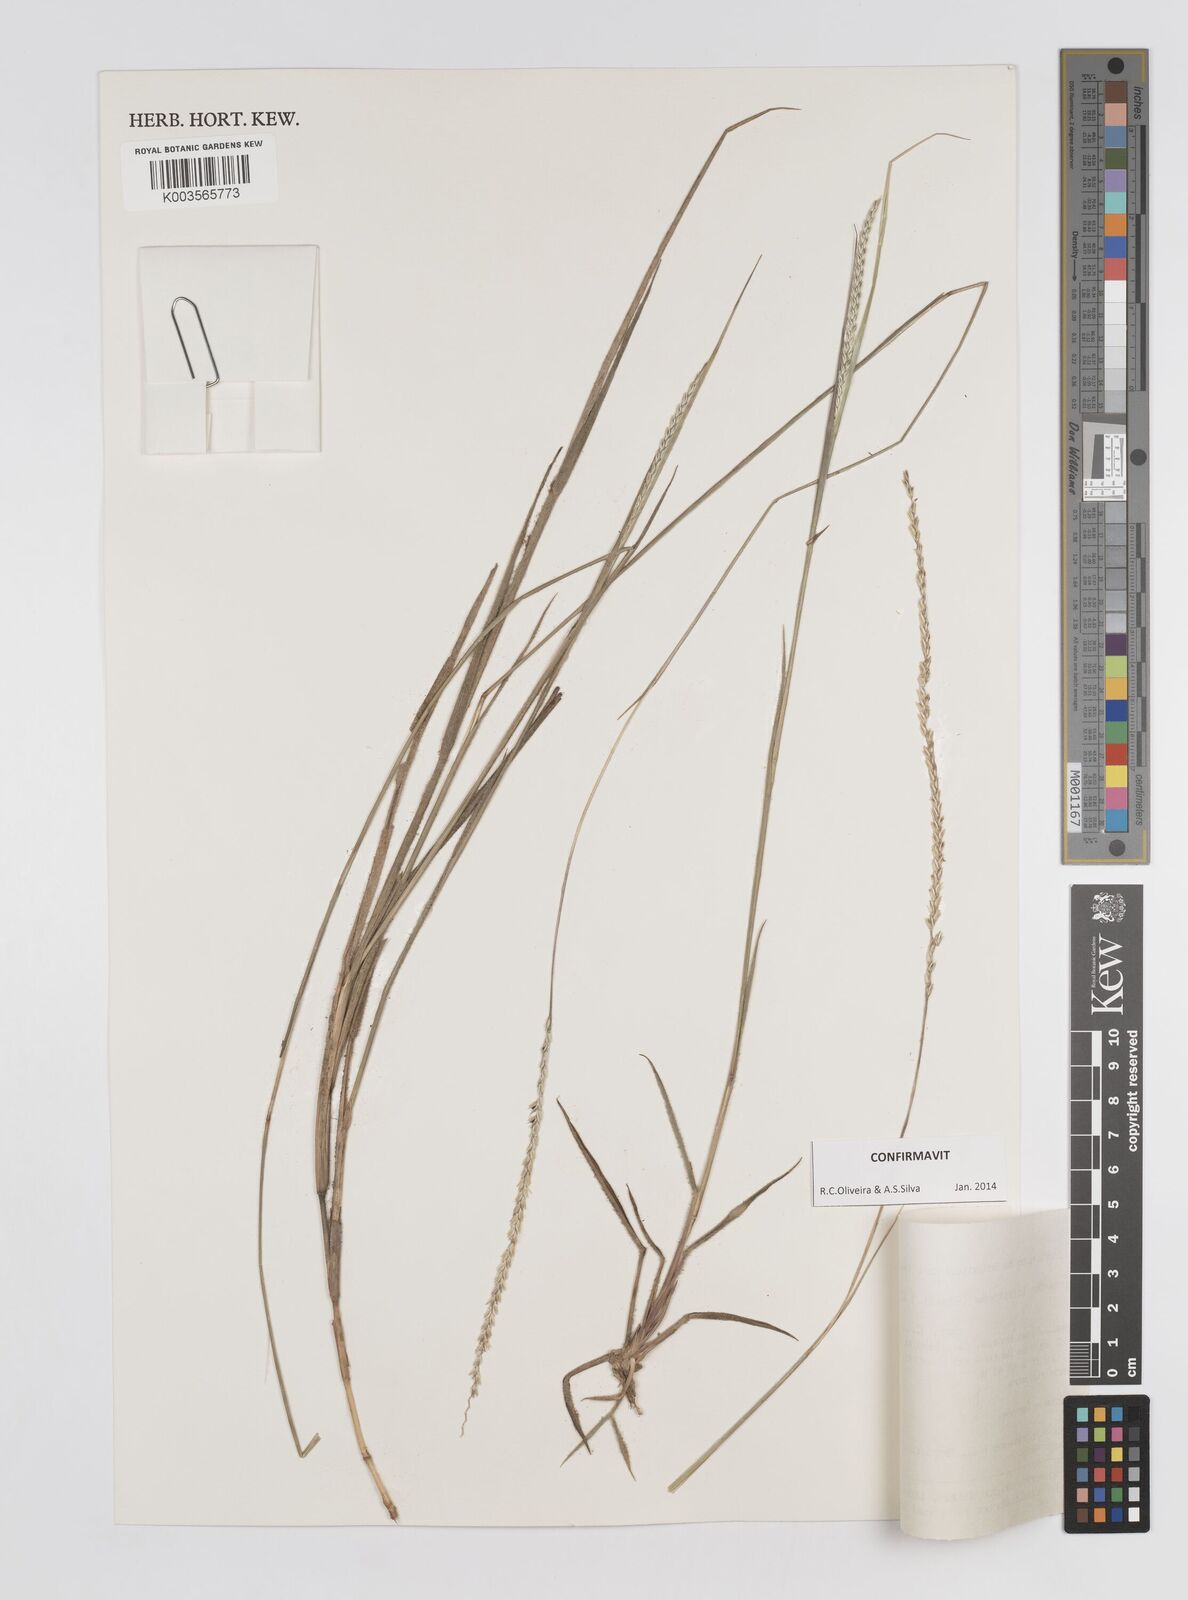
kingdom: Plantae
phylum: Tracheophyta
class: Liliopsida
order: Poales
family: Poaceae
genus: Mesosetum
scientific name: Mesosetum loliiforme
